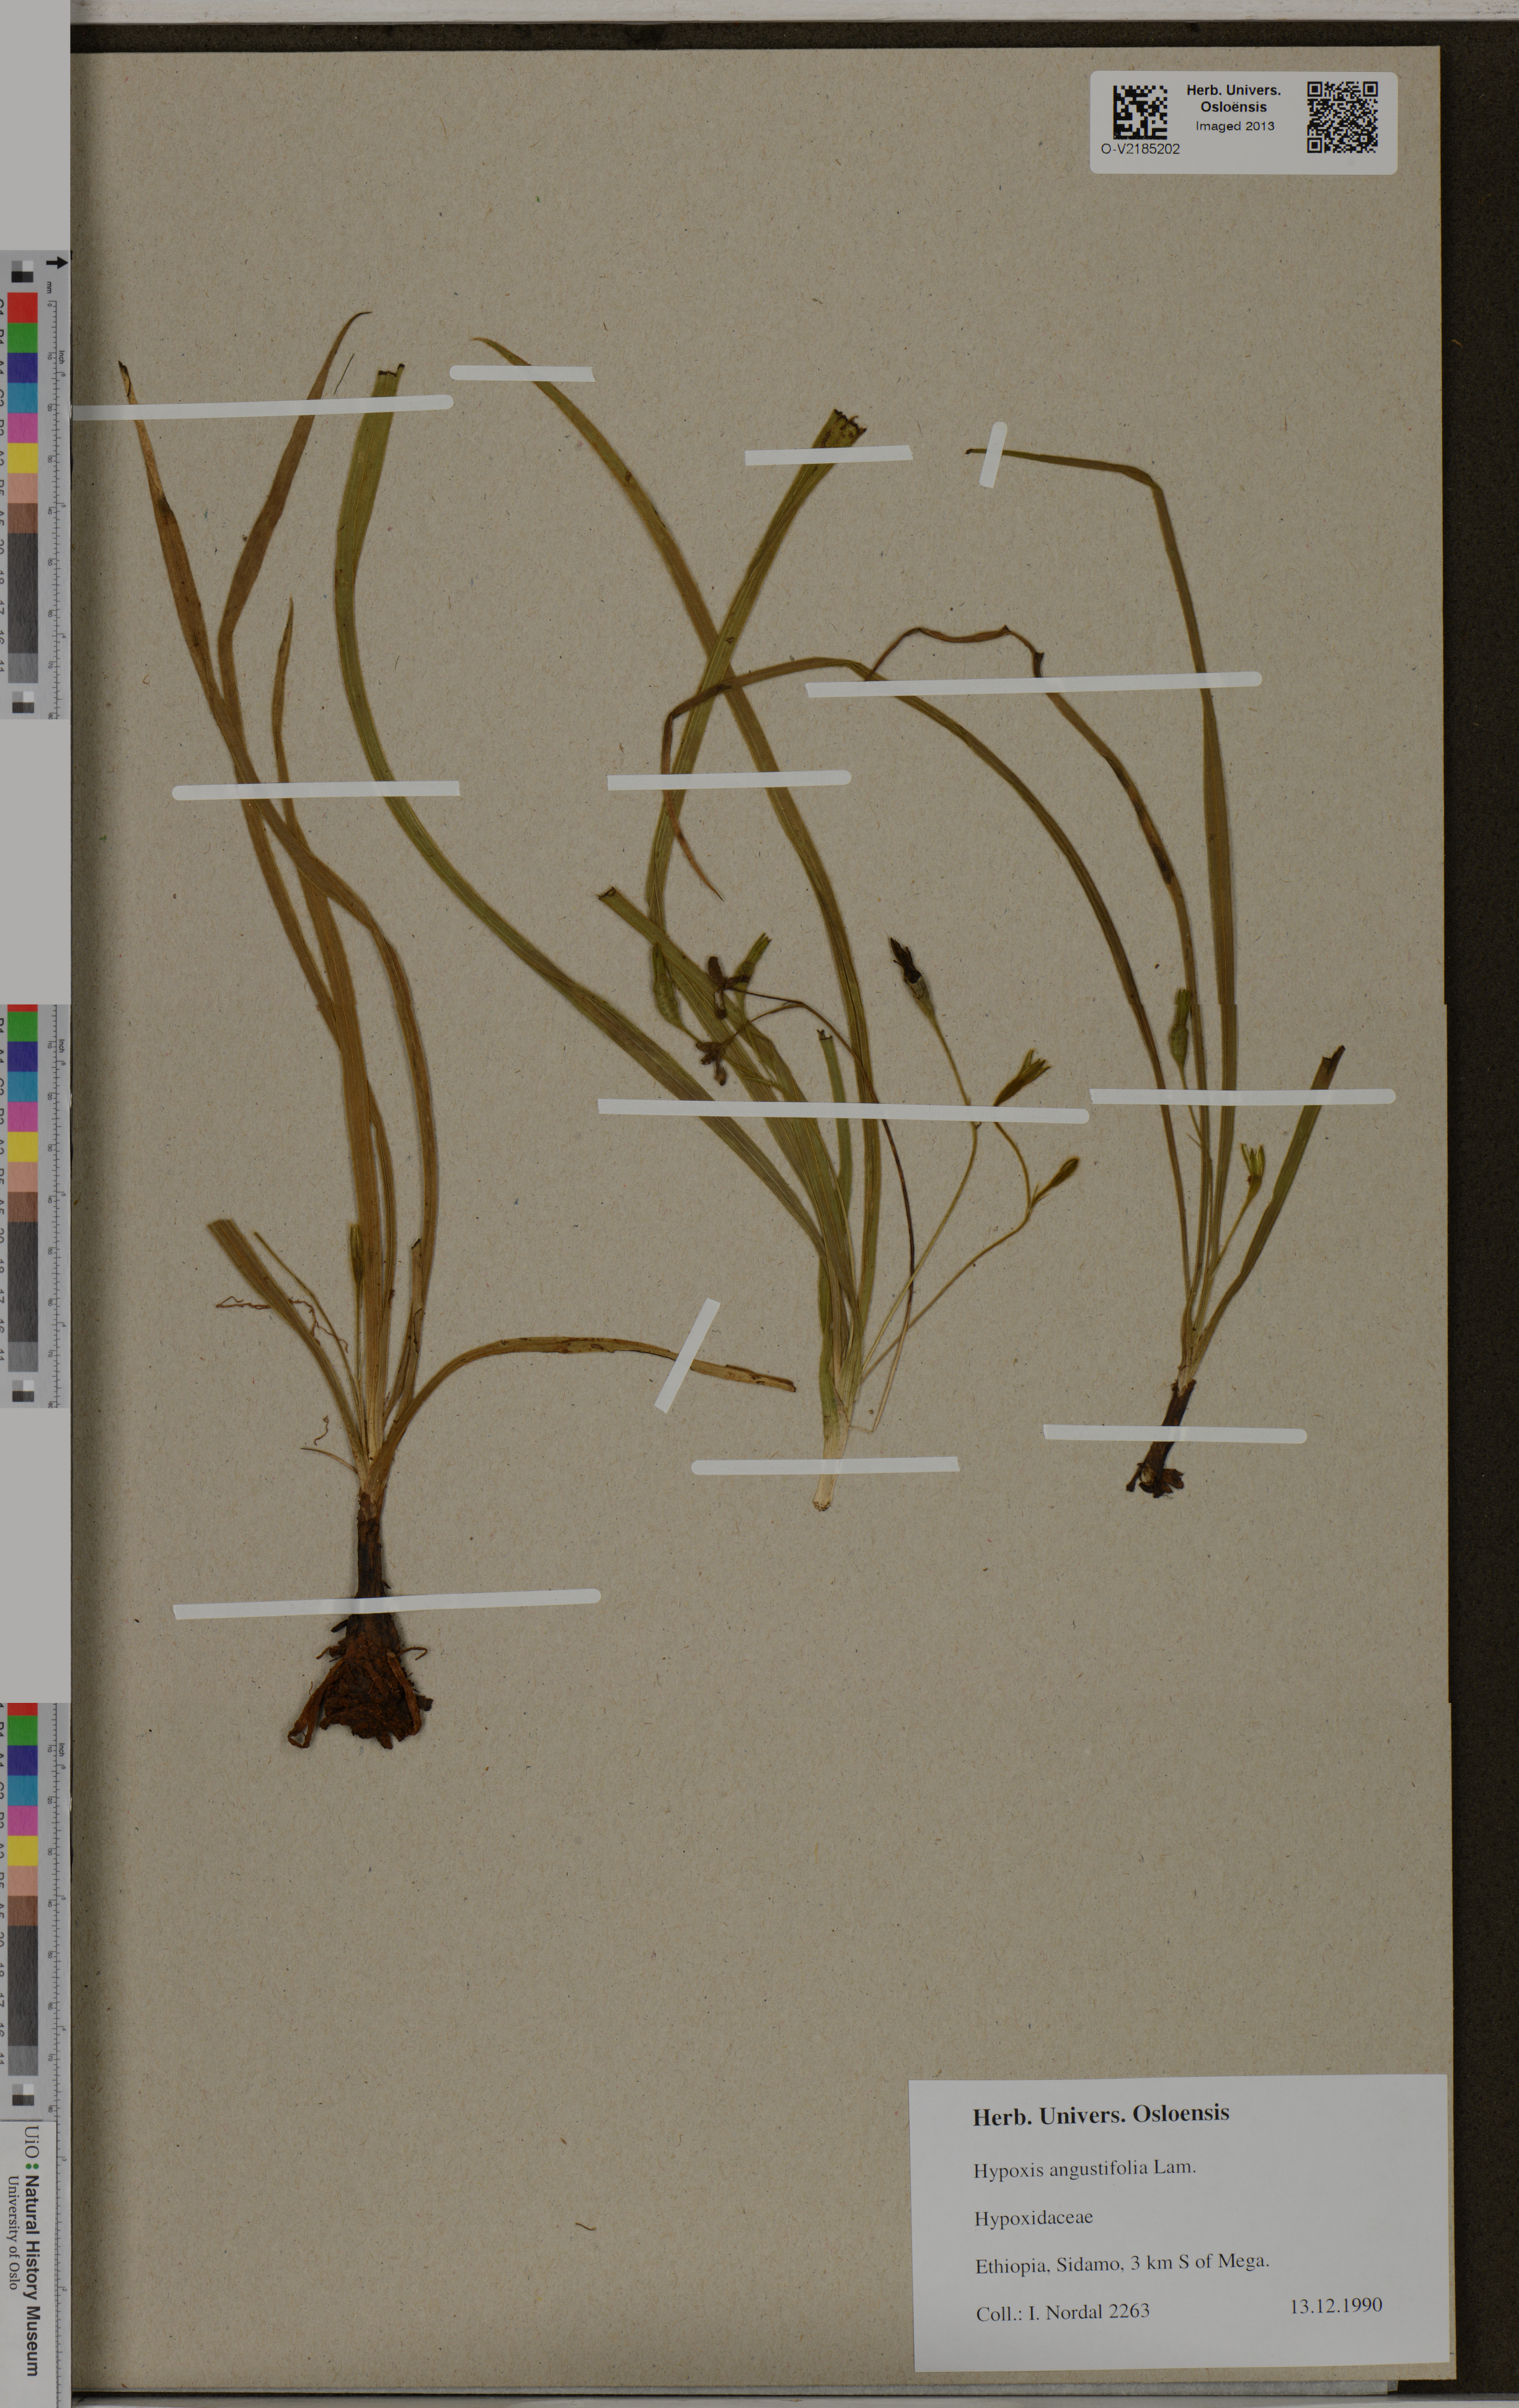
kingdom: Plantae
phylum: Tracheophyta
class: Liliopsida
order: Asparagales
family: Hypoxidaceae
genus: Hypoxis
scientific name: Hypoxis angustifolia
